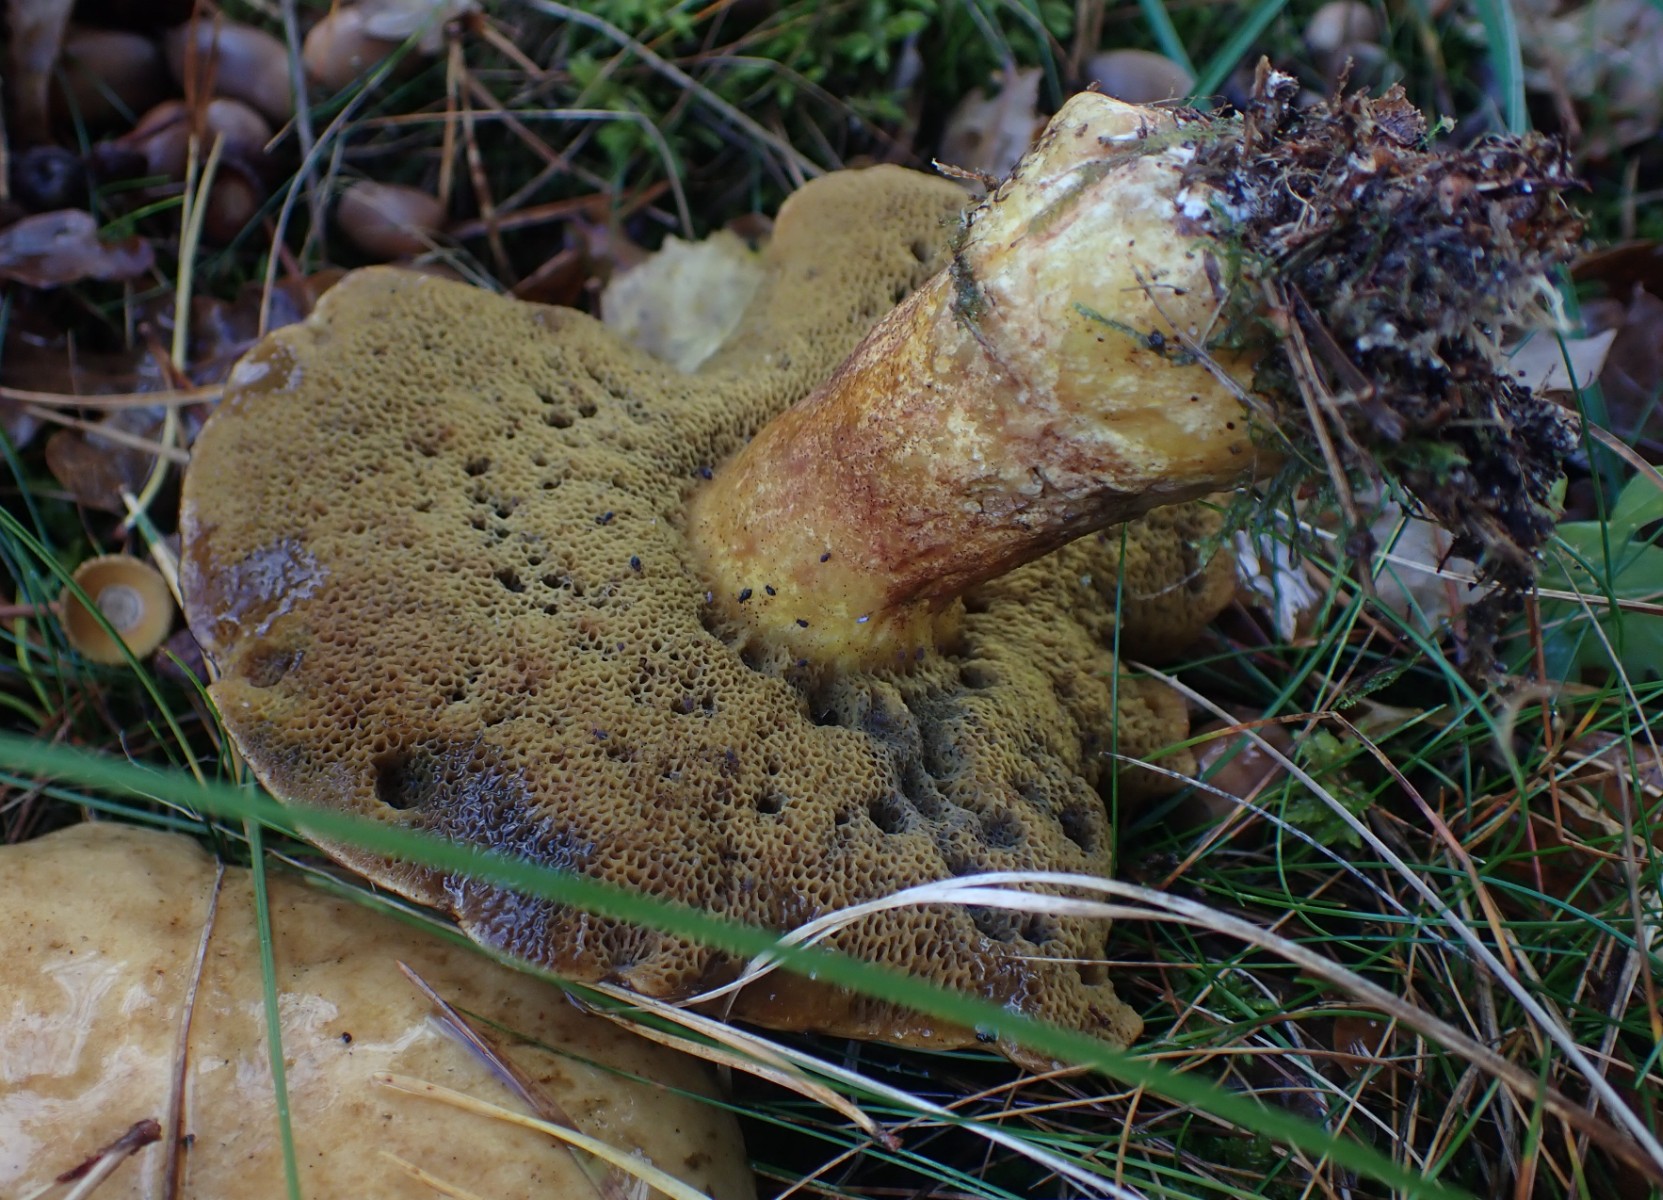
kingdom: Fungi
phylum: Basidiomycota
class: Agaricomycetes
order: Boletales
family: Suillaceae
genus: Suillus
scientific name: Suillus variegatus
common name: broget slimrørhat
